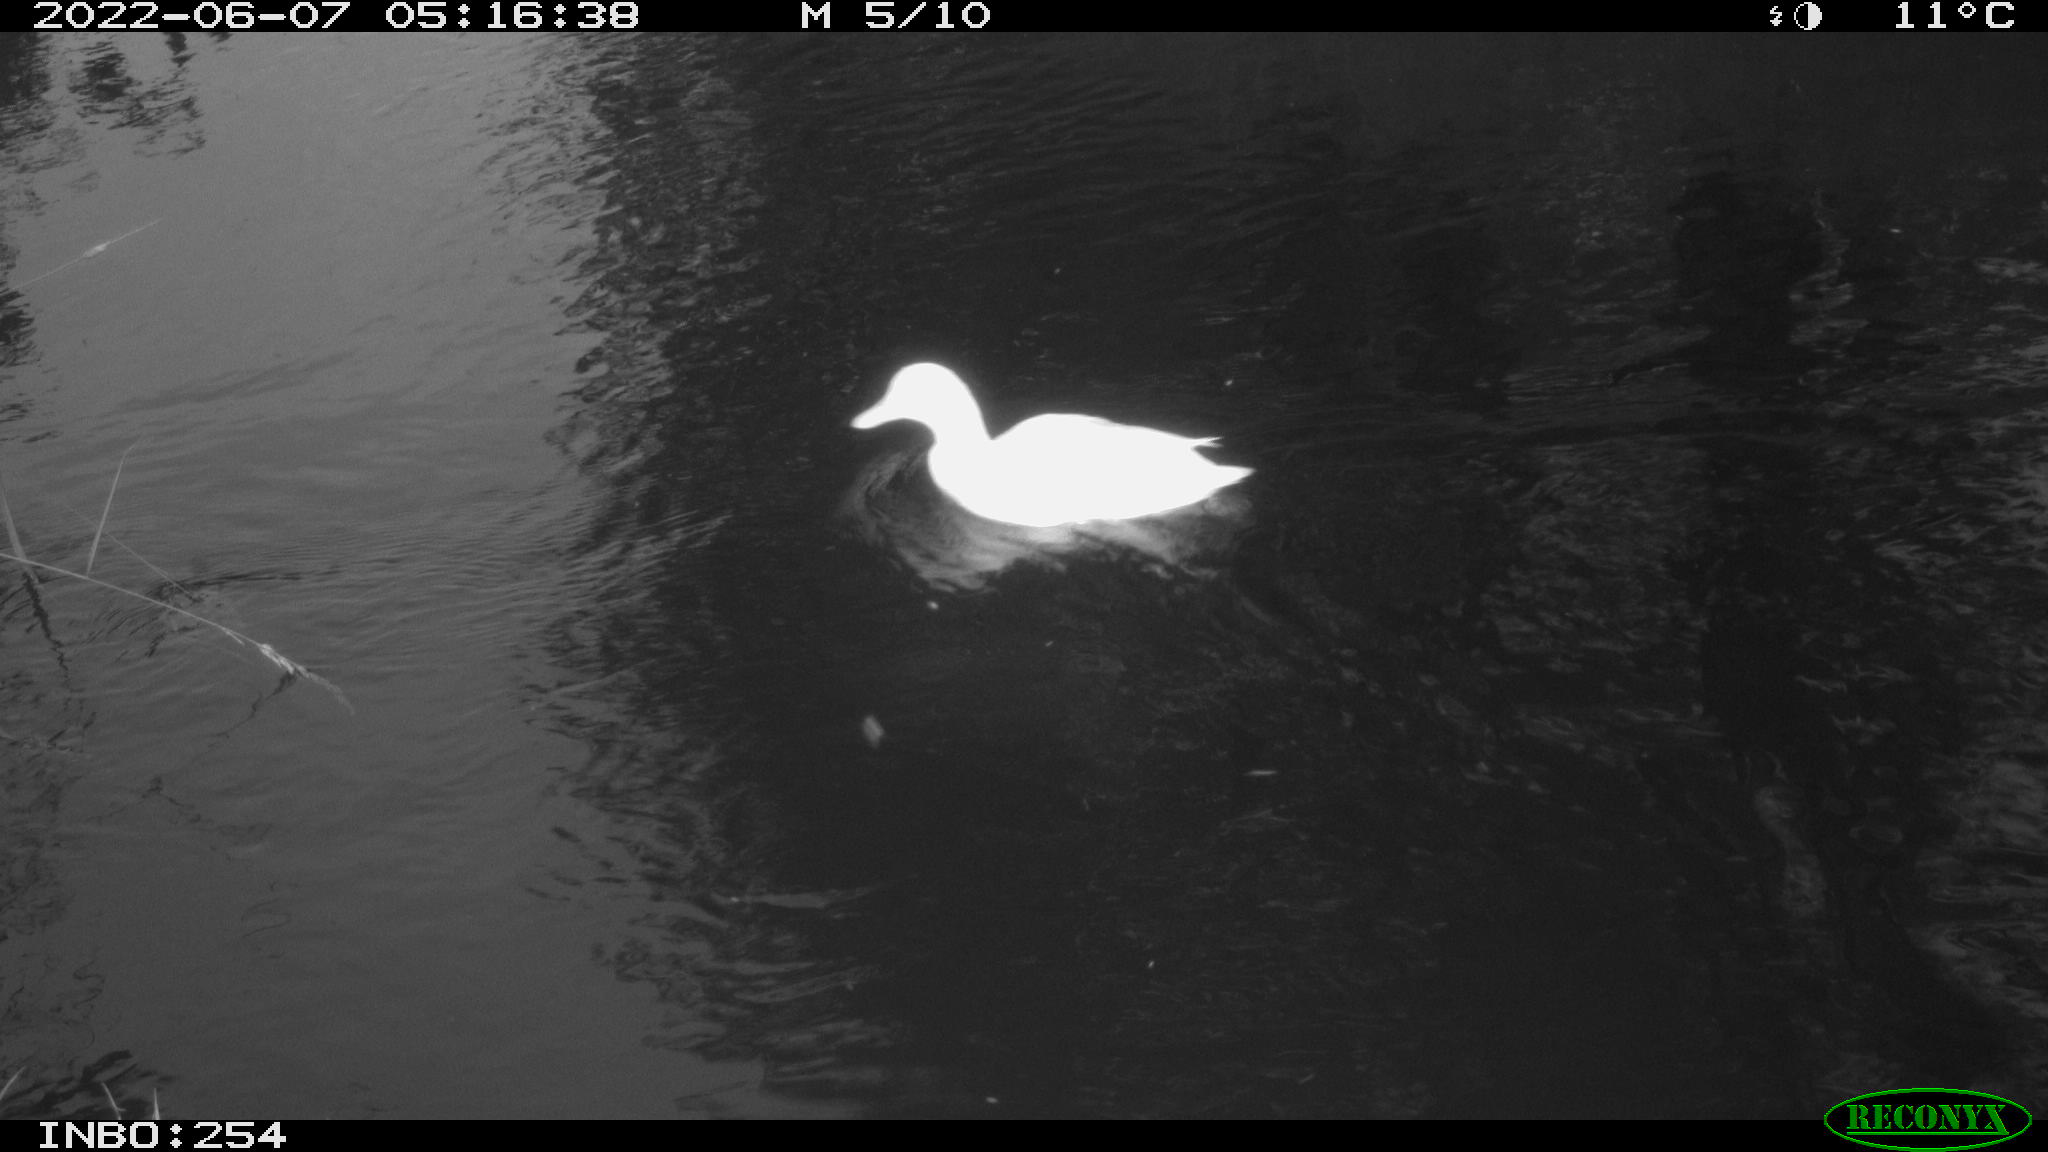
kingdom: Animalia
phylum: Chordata
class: Aves
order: Anseriformes
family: Anatidae
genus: Anas
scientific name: Anas platyrhynchos
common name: Mallard
